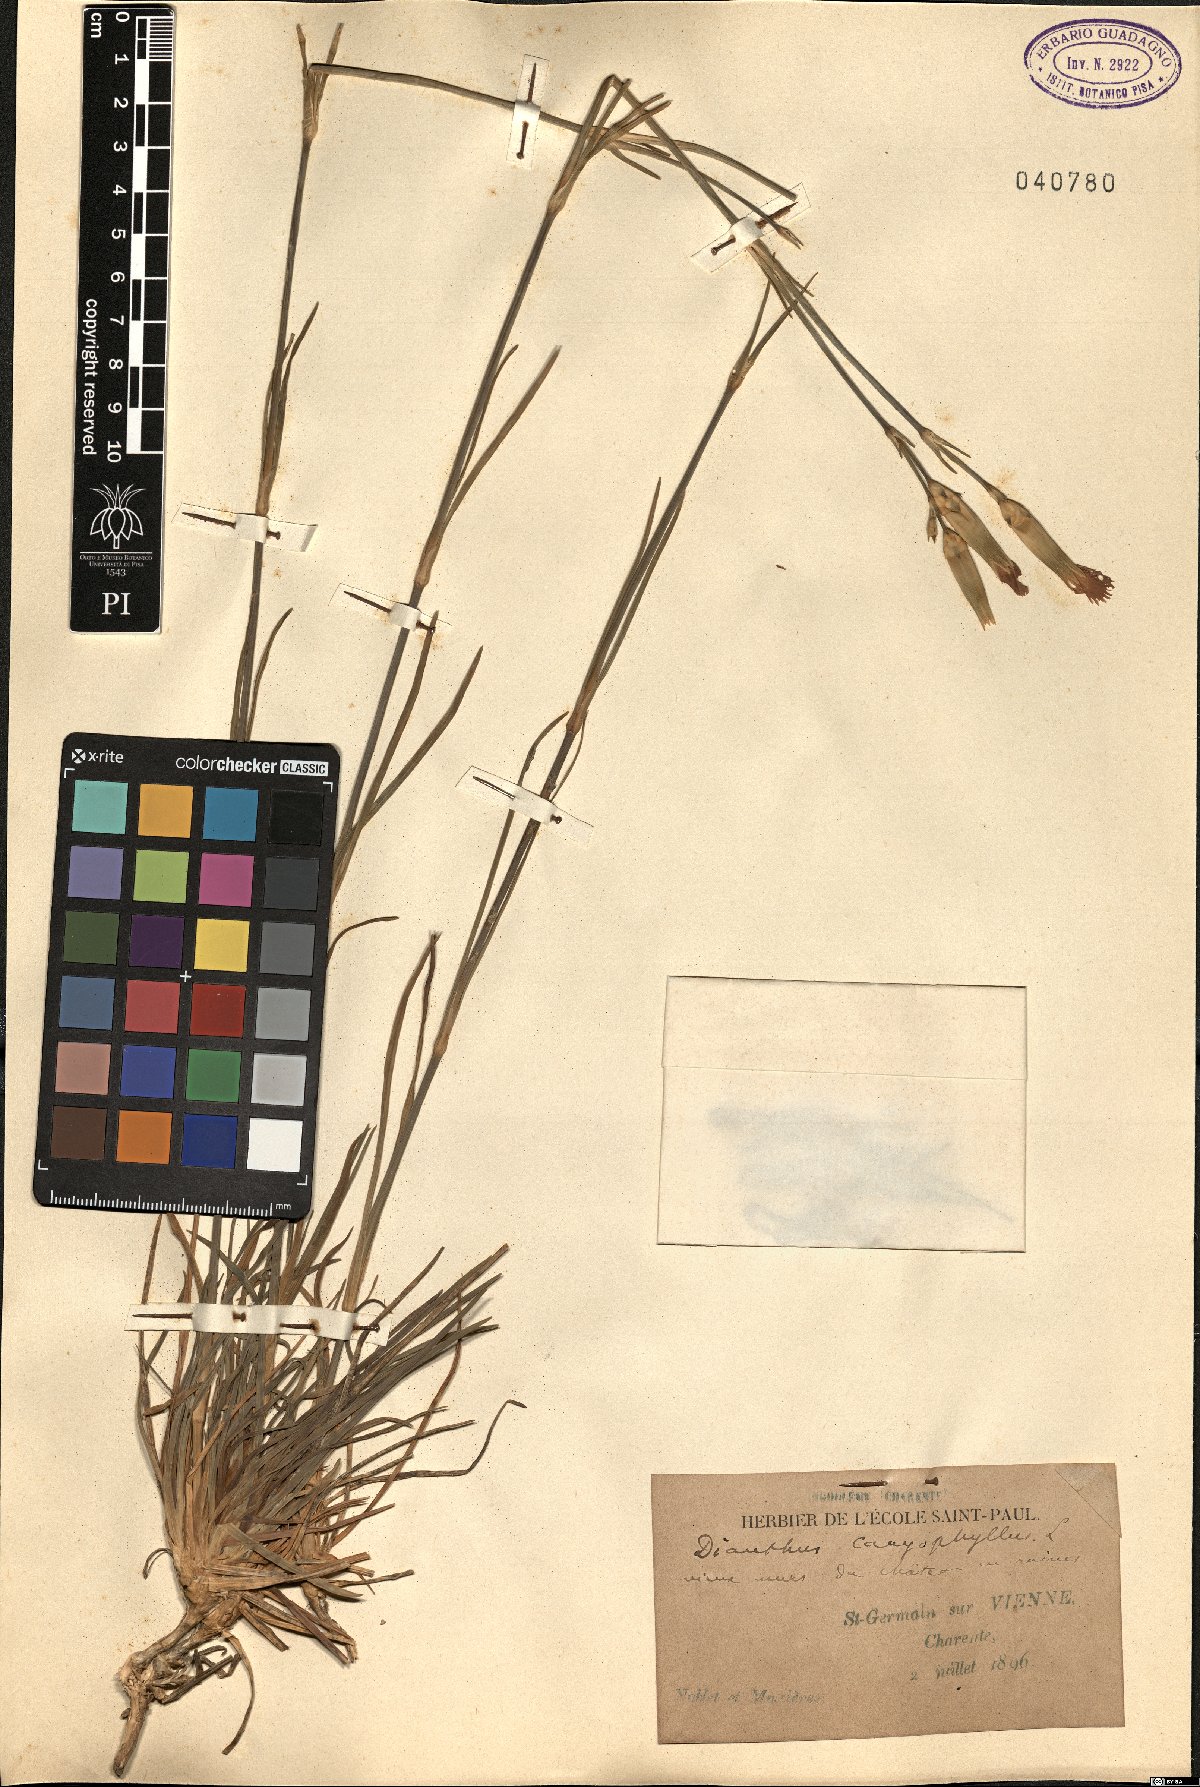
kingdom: Plantae
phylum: Tracheophyta
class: Magnoliopsida
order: Caryophyllales
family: Caryophyllaceae
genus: Dianthus
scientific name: Dianthus caryophyllus
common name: Clove pink
